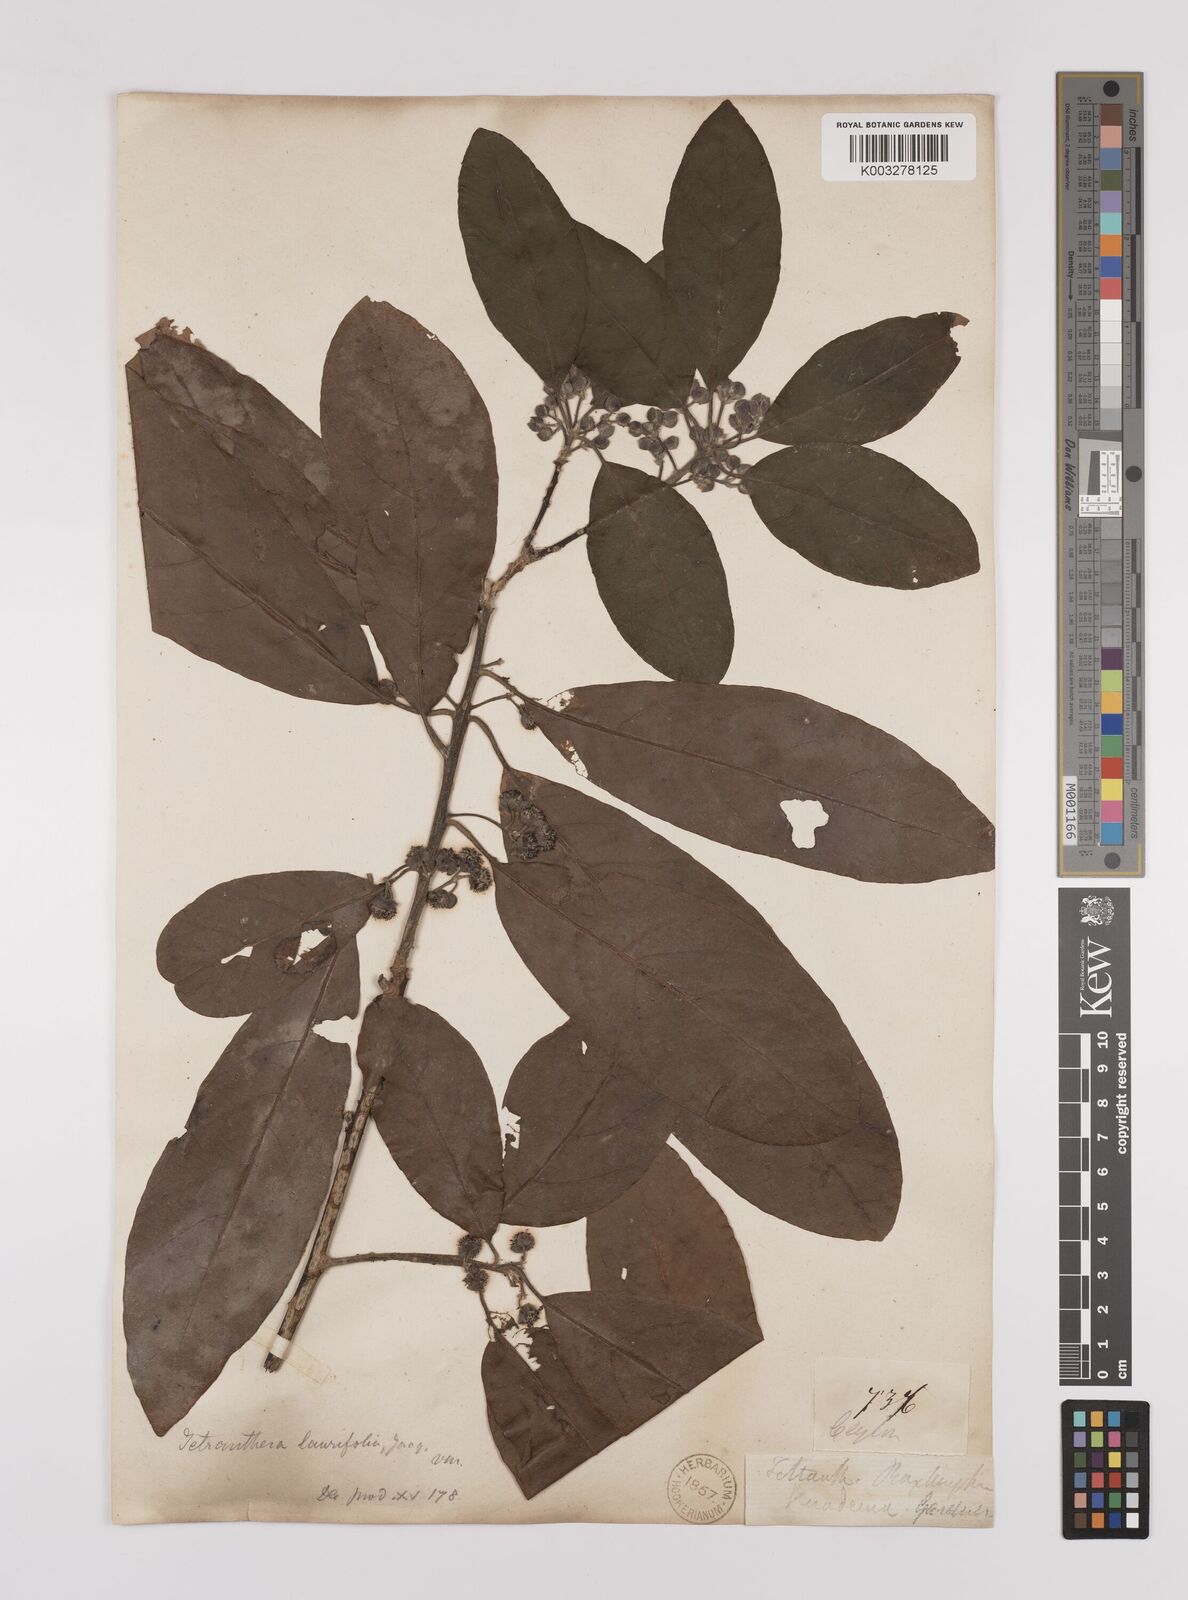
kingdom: Plantae
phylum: Tracheophyta
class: Magnoliopsida
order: Laurales
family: Lauraceae
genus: Litsea
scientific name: Litsea
